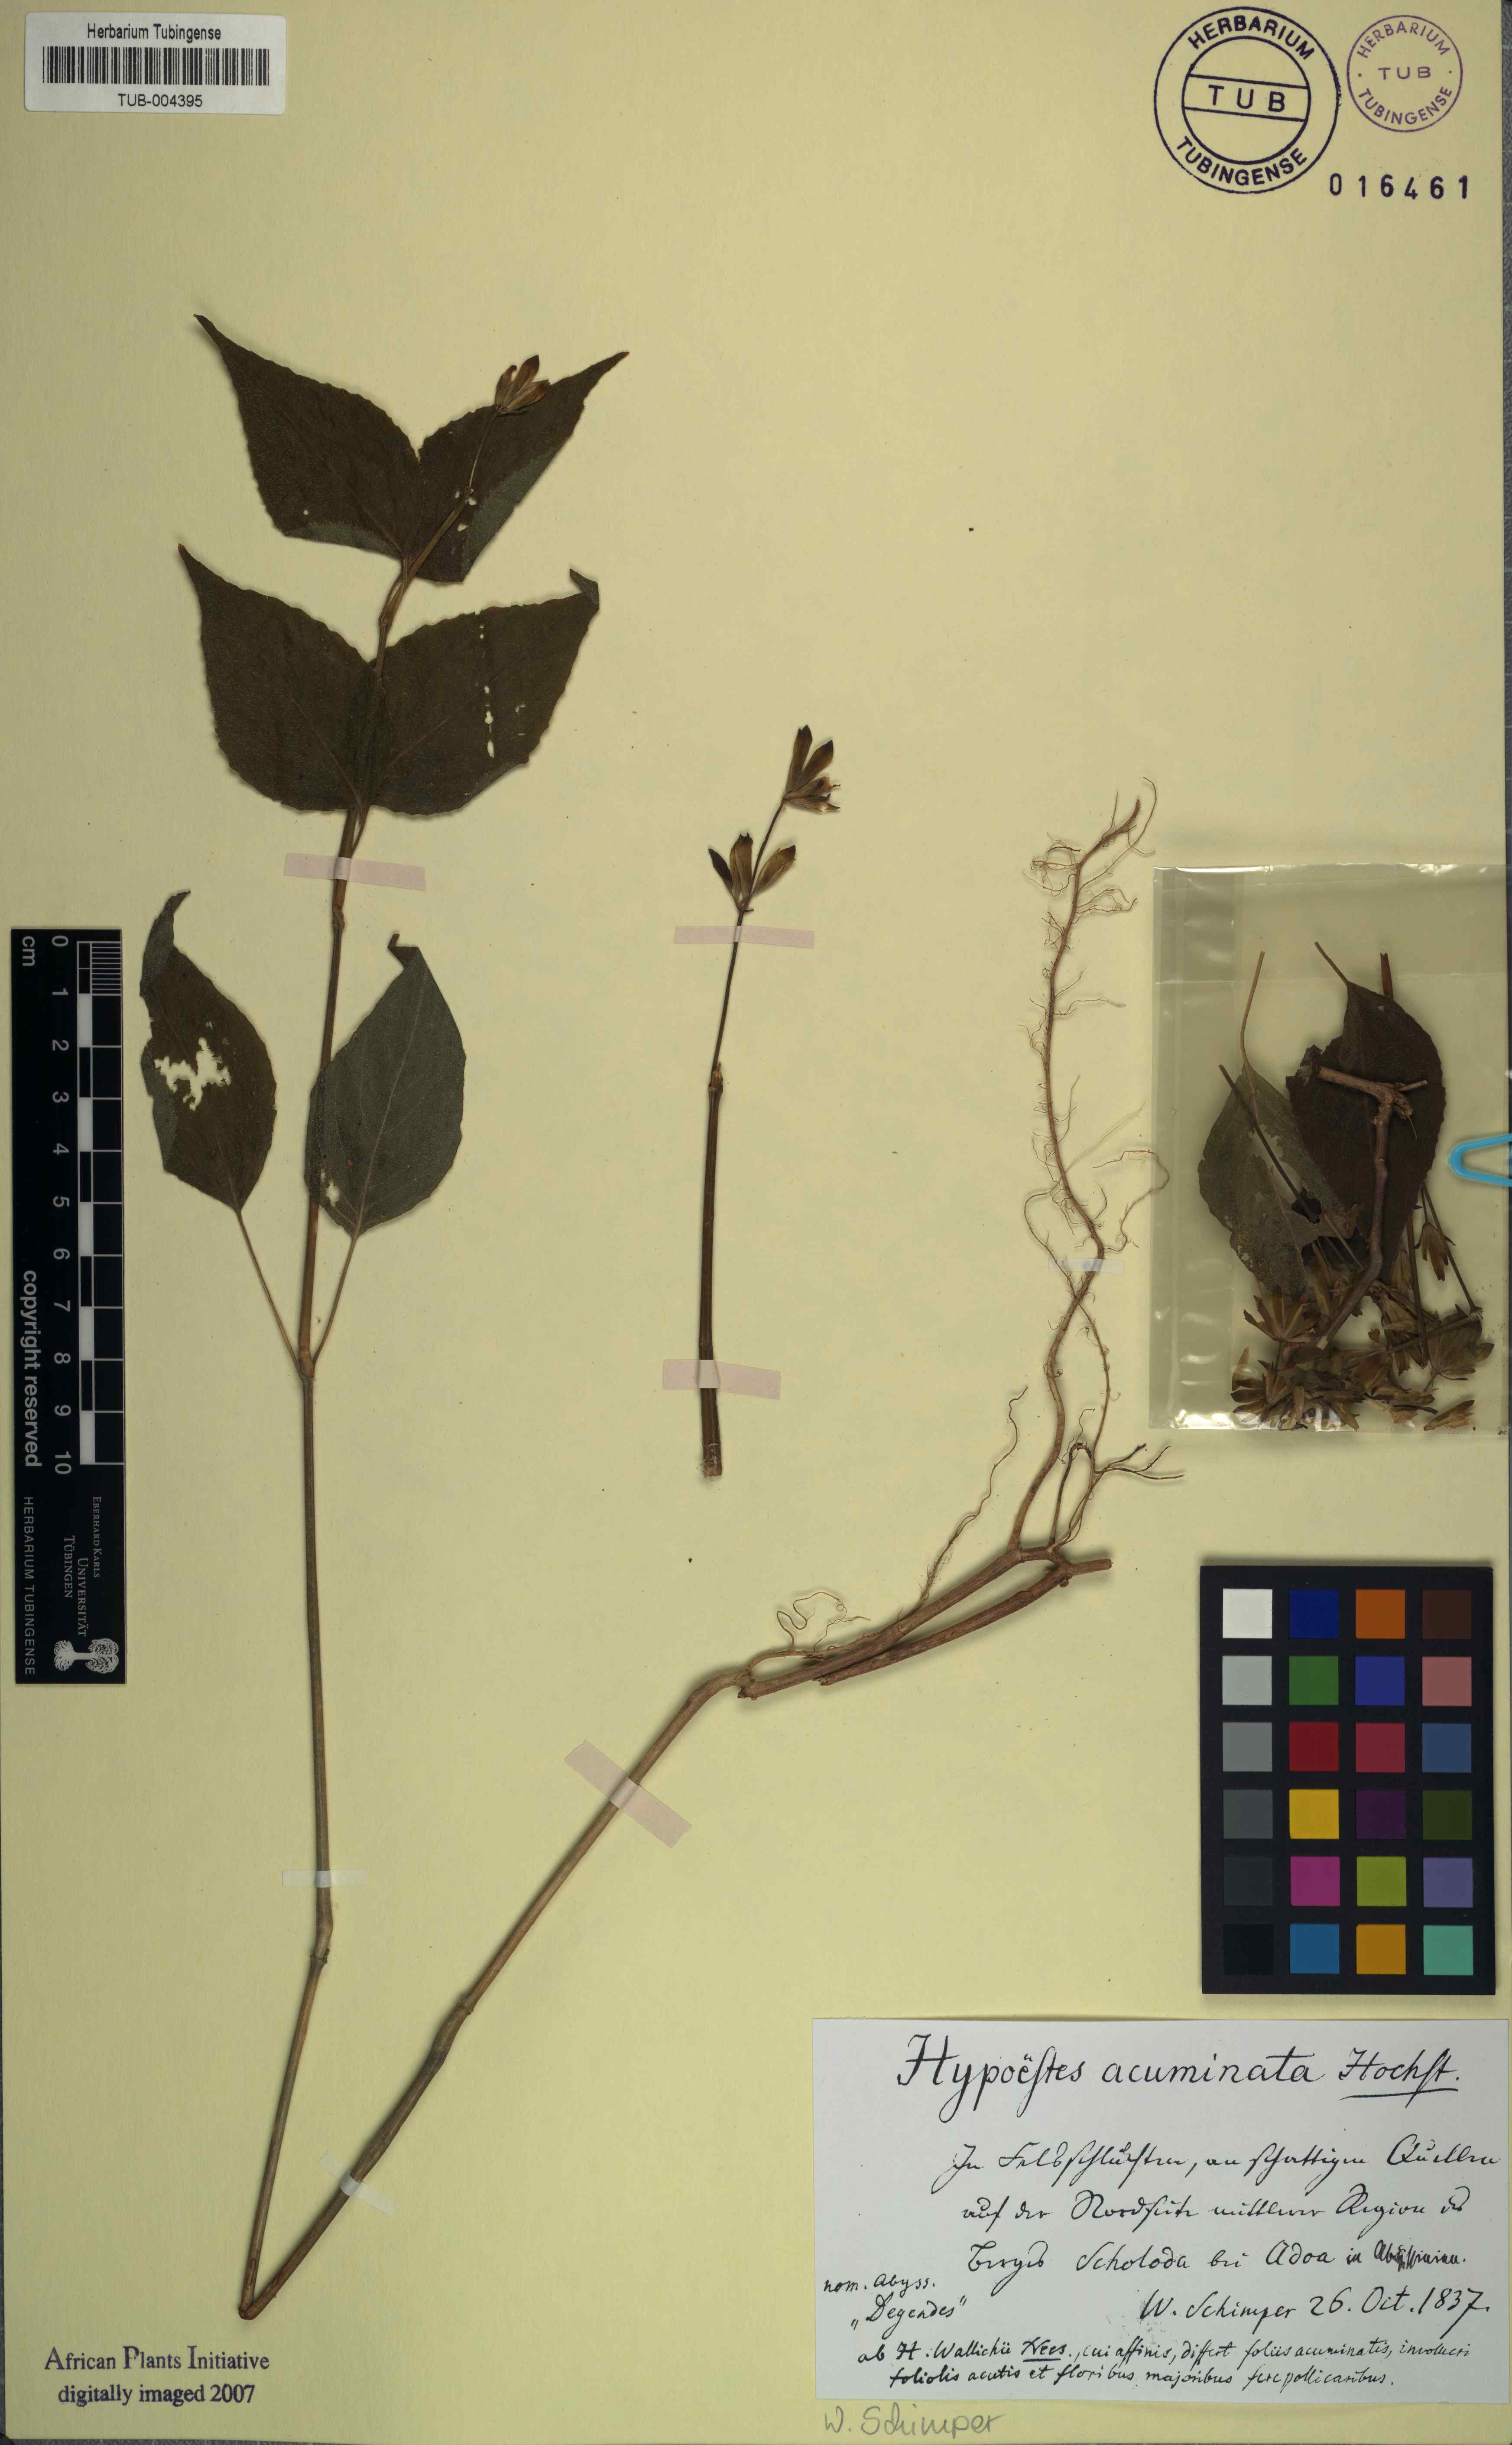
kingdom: Plantae
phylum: Tracheophyta
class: Magnoliopsida
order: Lamiales
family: Acanthaceae
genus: Hypoestes
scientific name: Hypoestes triflora
